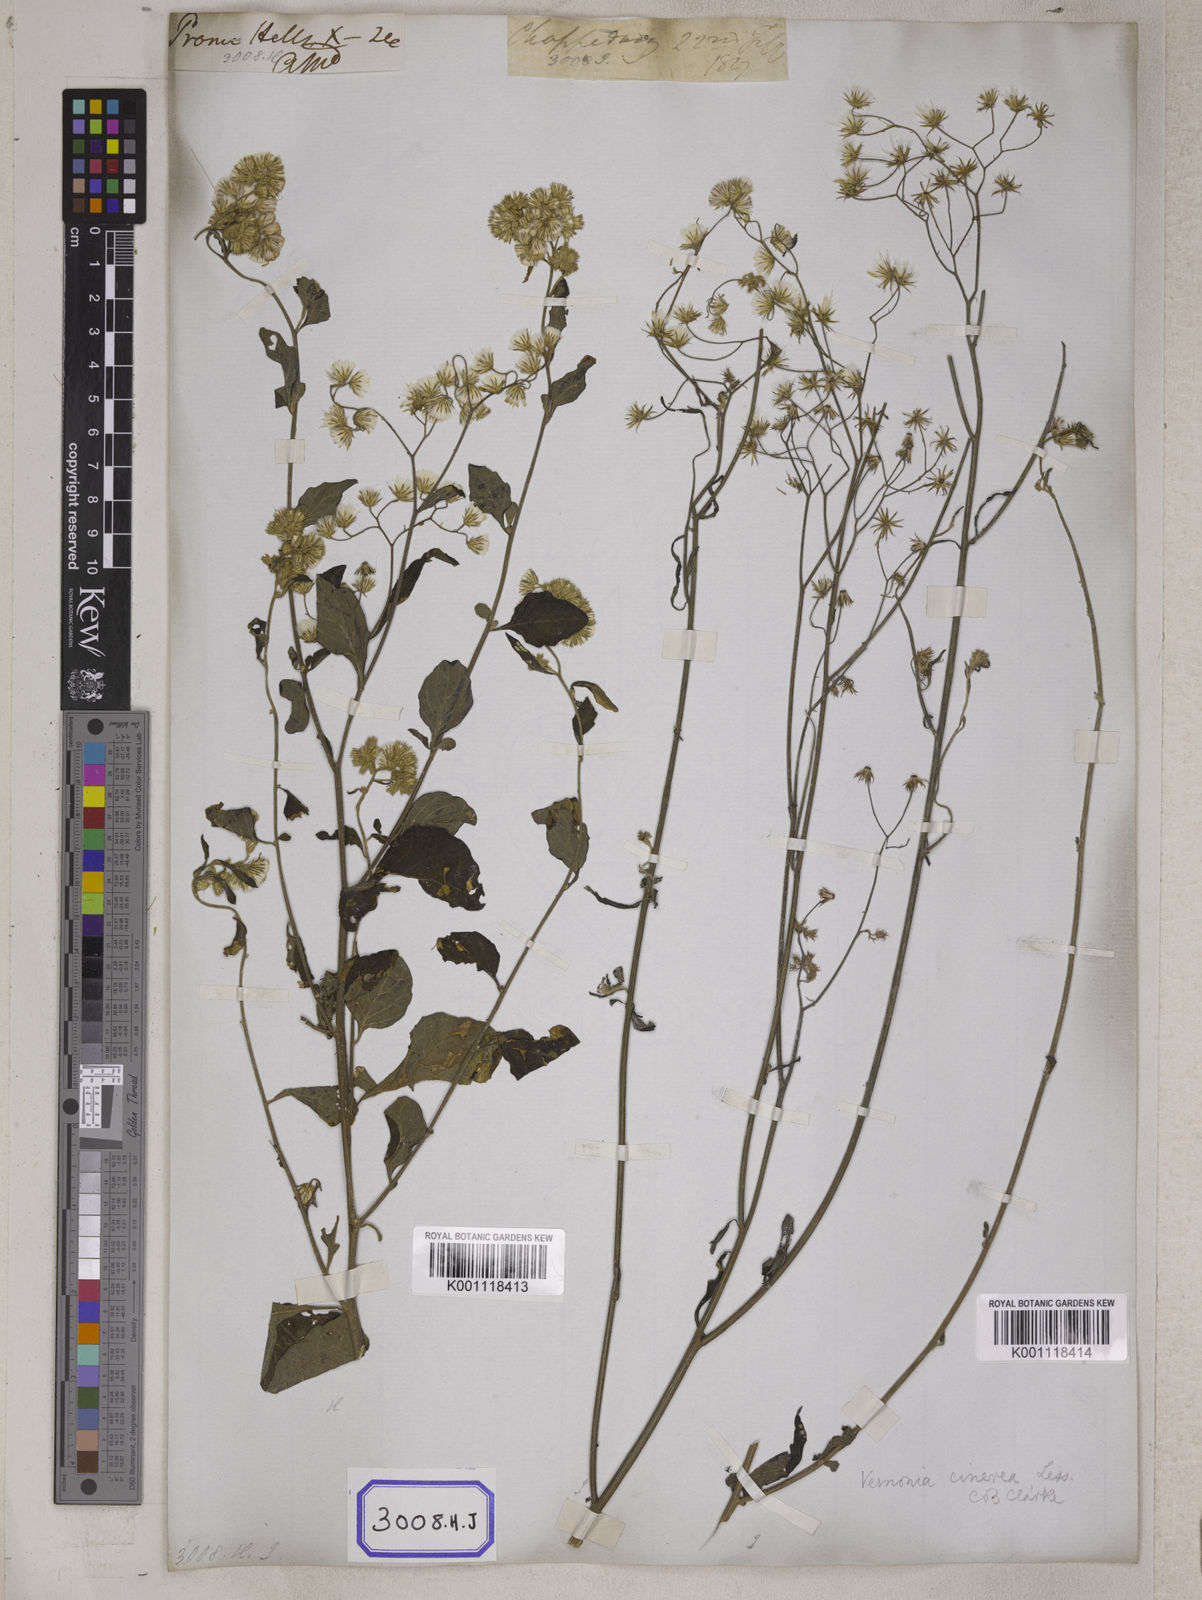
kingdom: Plantae
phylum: Tracheophyta
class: Magnoliopsida
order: Asterales
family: Asteraceae
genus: Cyanthillium
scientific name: Cyanthillium cinereum
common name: Little ironweed
